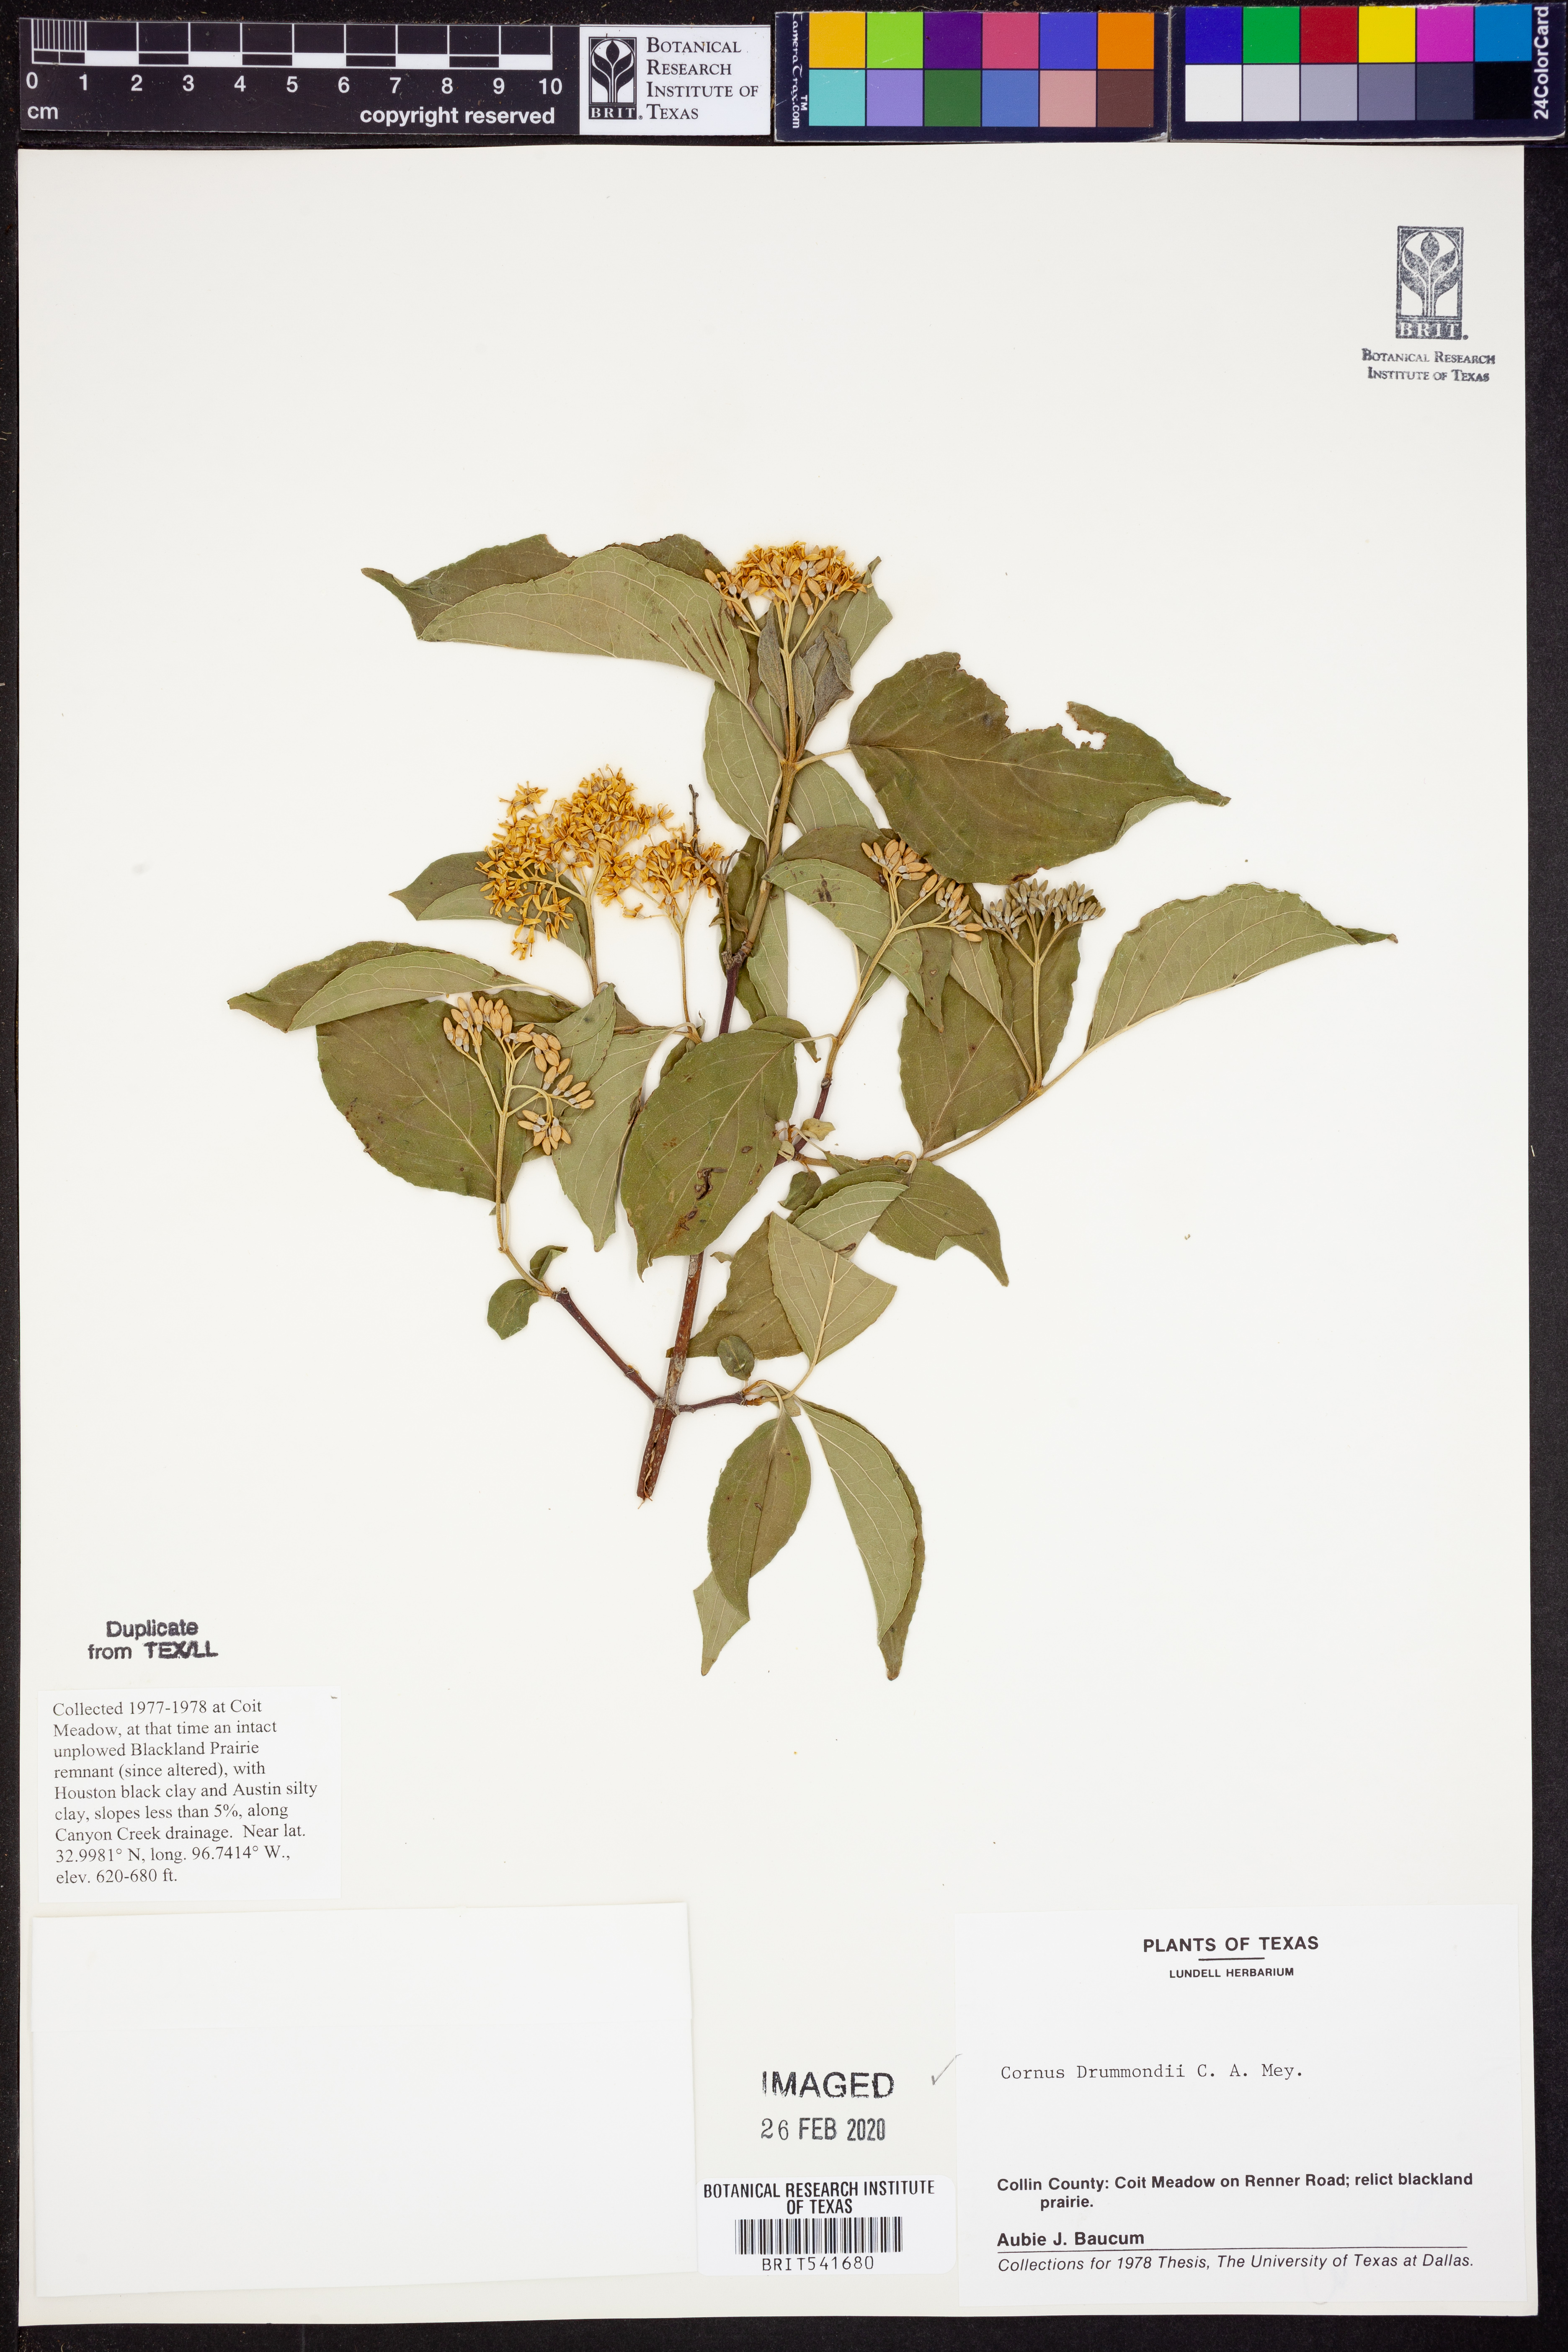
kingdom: Plantae
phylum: Tracheophyta
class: Magnoliopsida
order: Cornales
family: Cornaceae
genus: Cornus
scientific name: Cornus drummondii
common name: Rough-leaf dogwood
